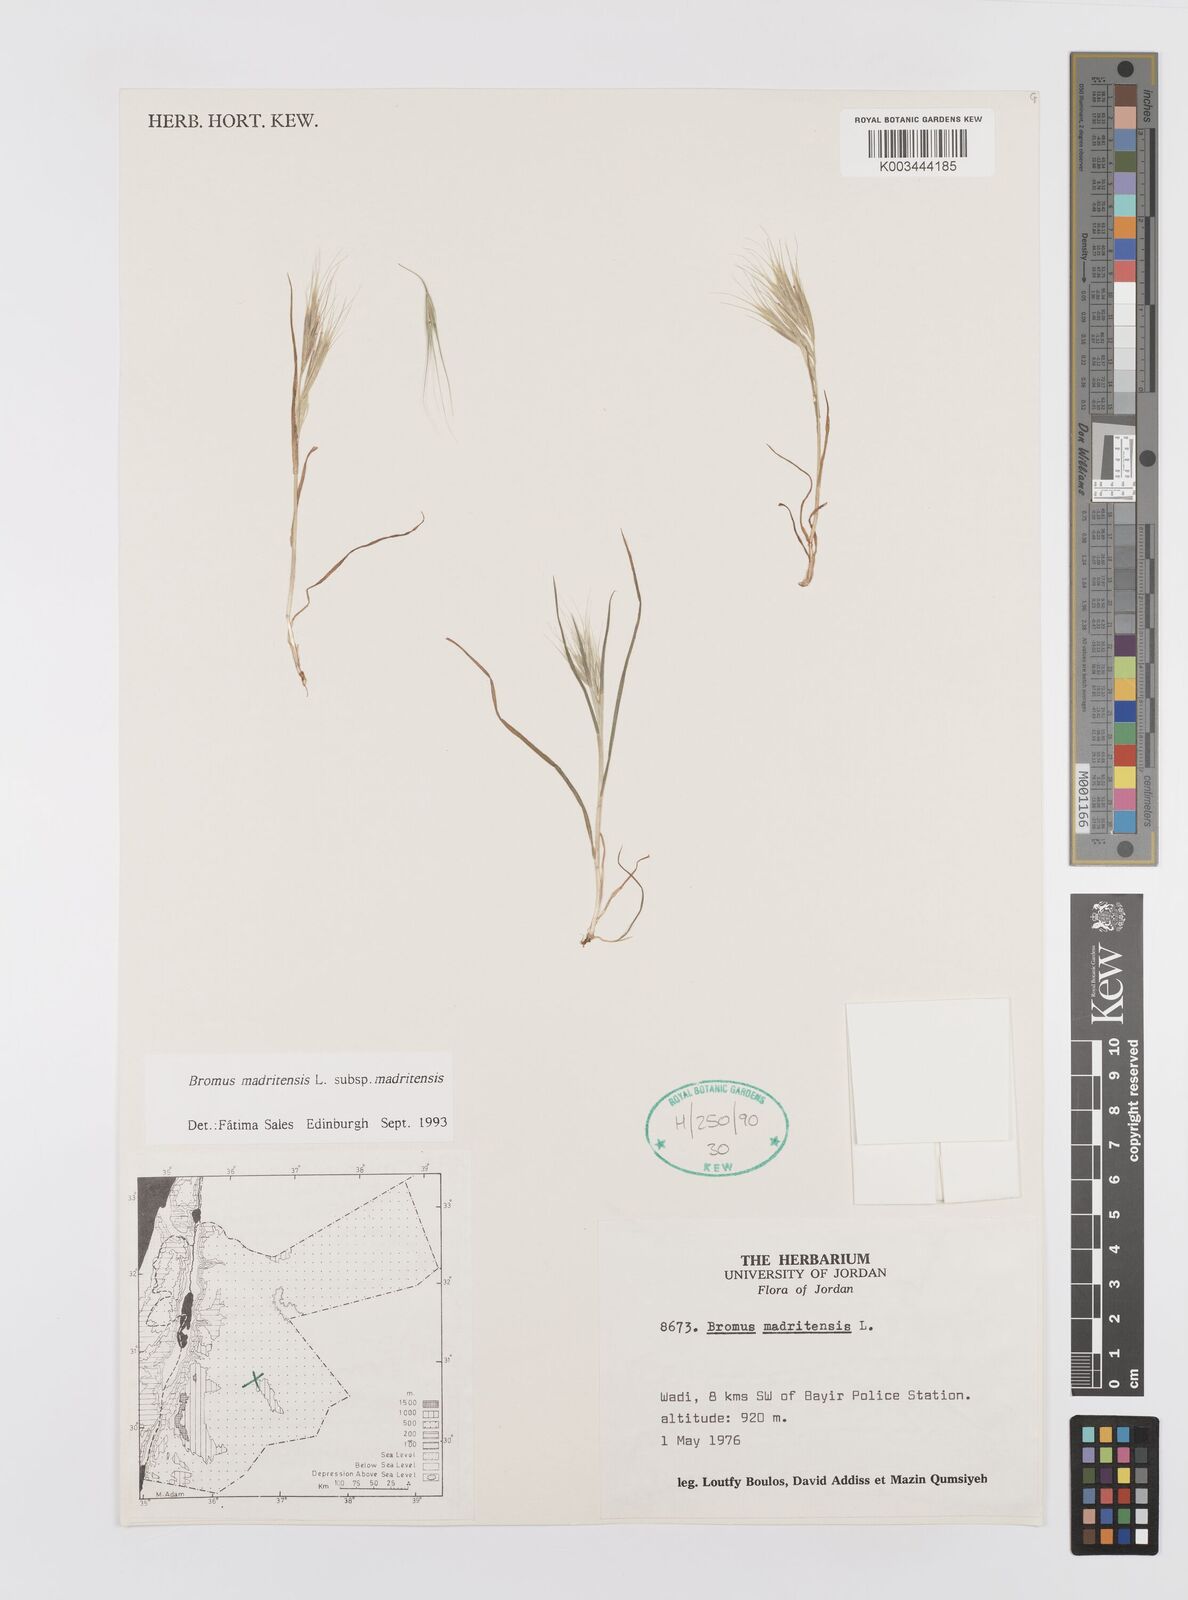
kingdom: Plantae
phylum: Tracheophyta
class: Liliopsida
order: Poales
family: Poaceae
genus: Bromus
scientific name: Bromus madritensis
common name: Compact brome
